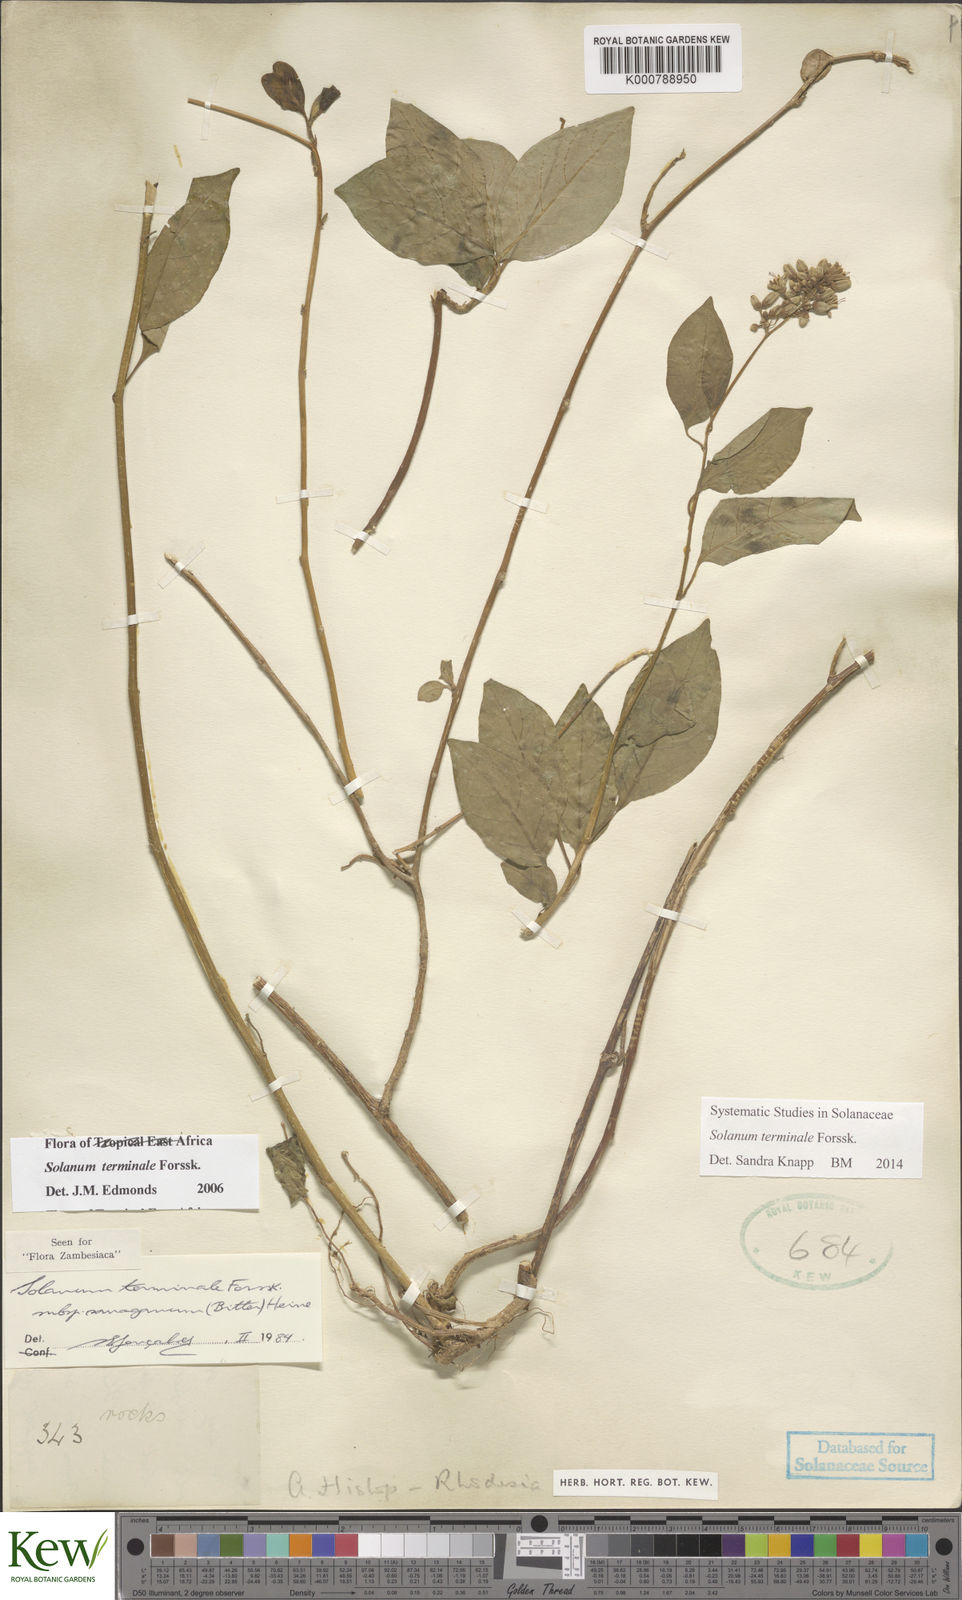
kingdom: Plantae
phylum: Tracheophyta
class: Magnoliopsida
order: Solanales
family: Solanaceae
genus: Solanum
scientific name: Solanum terminale
